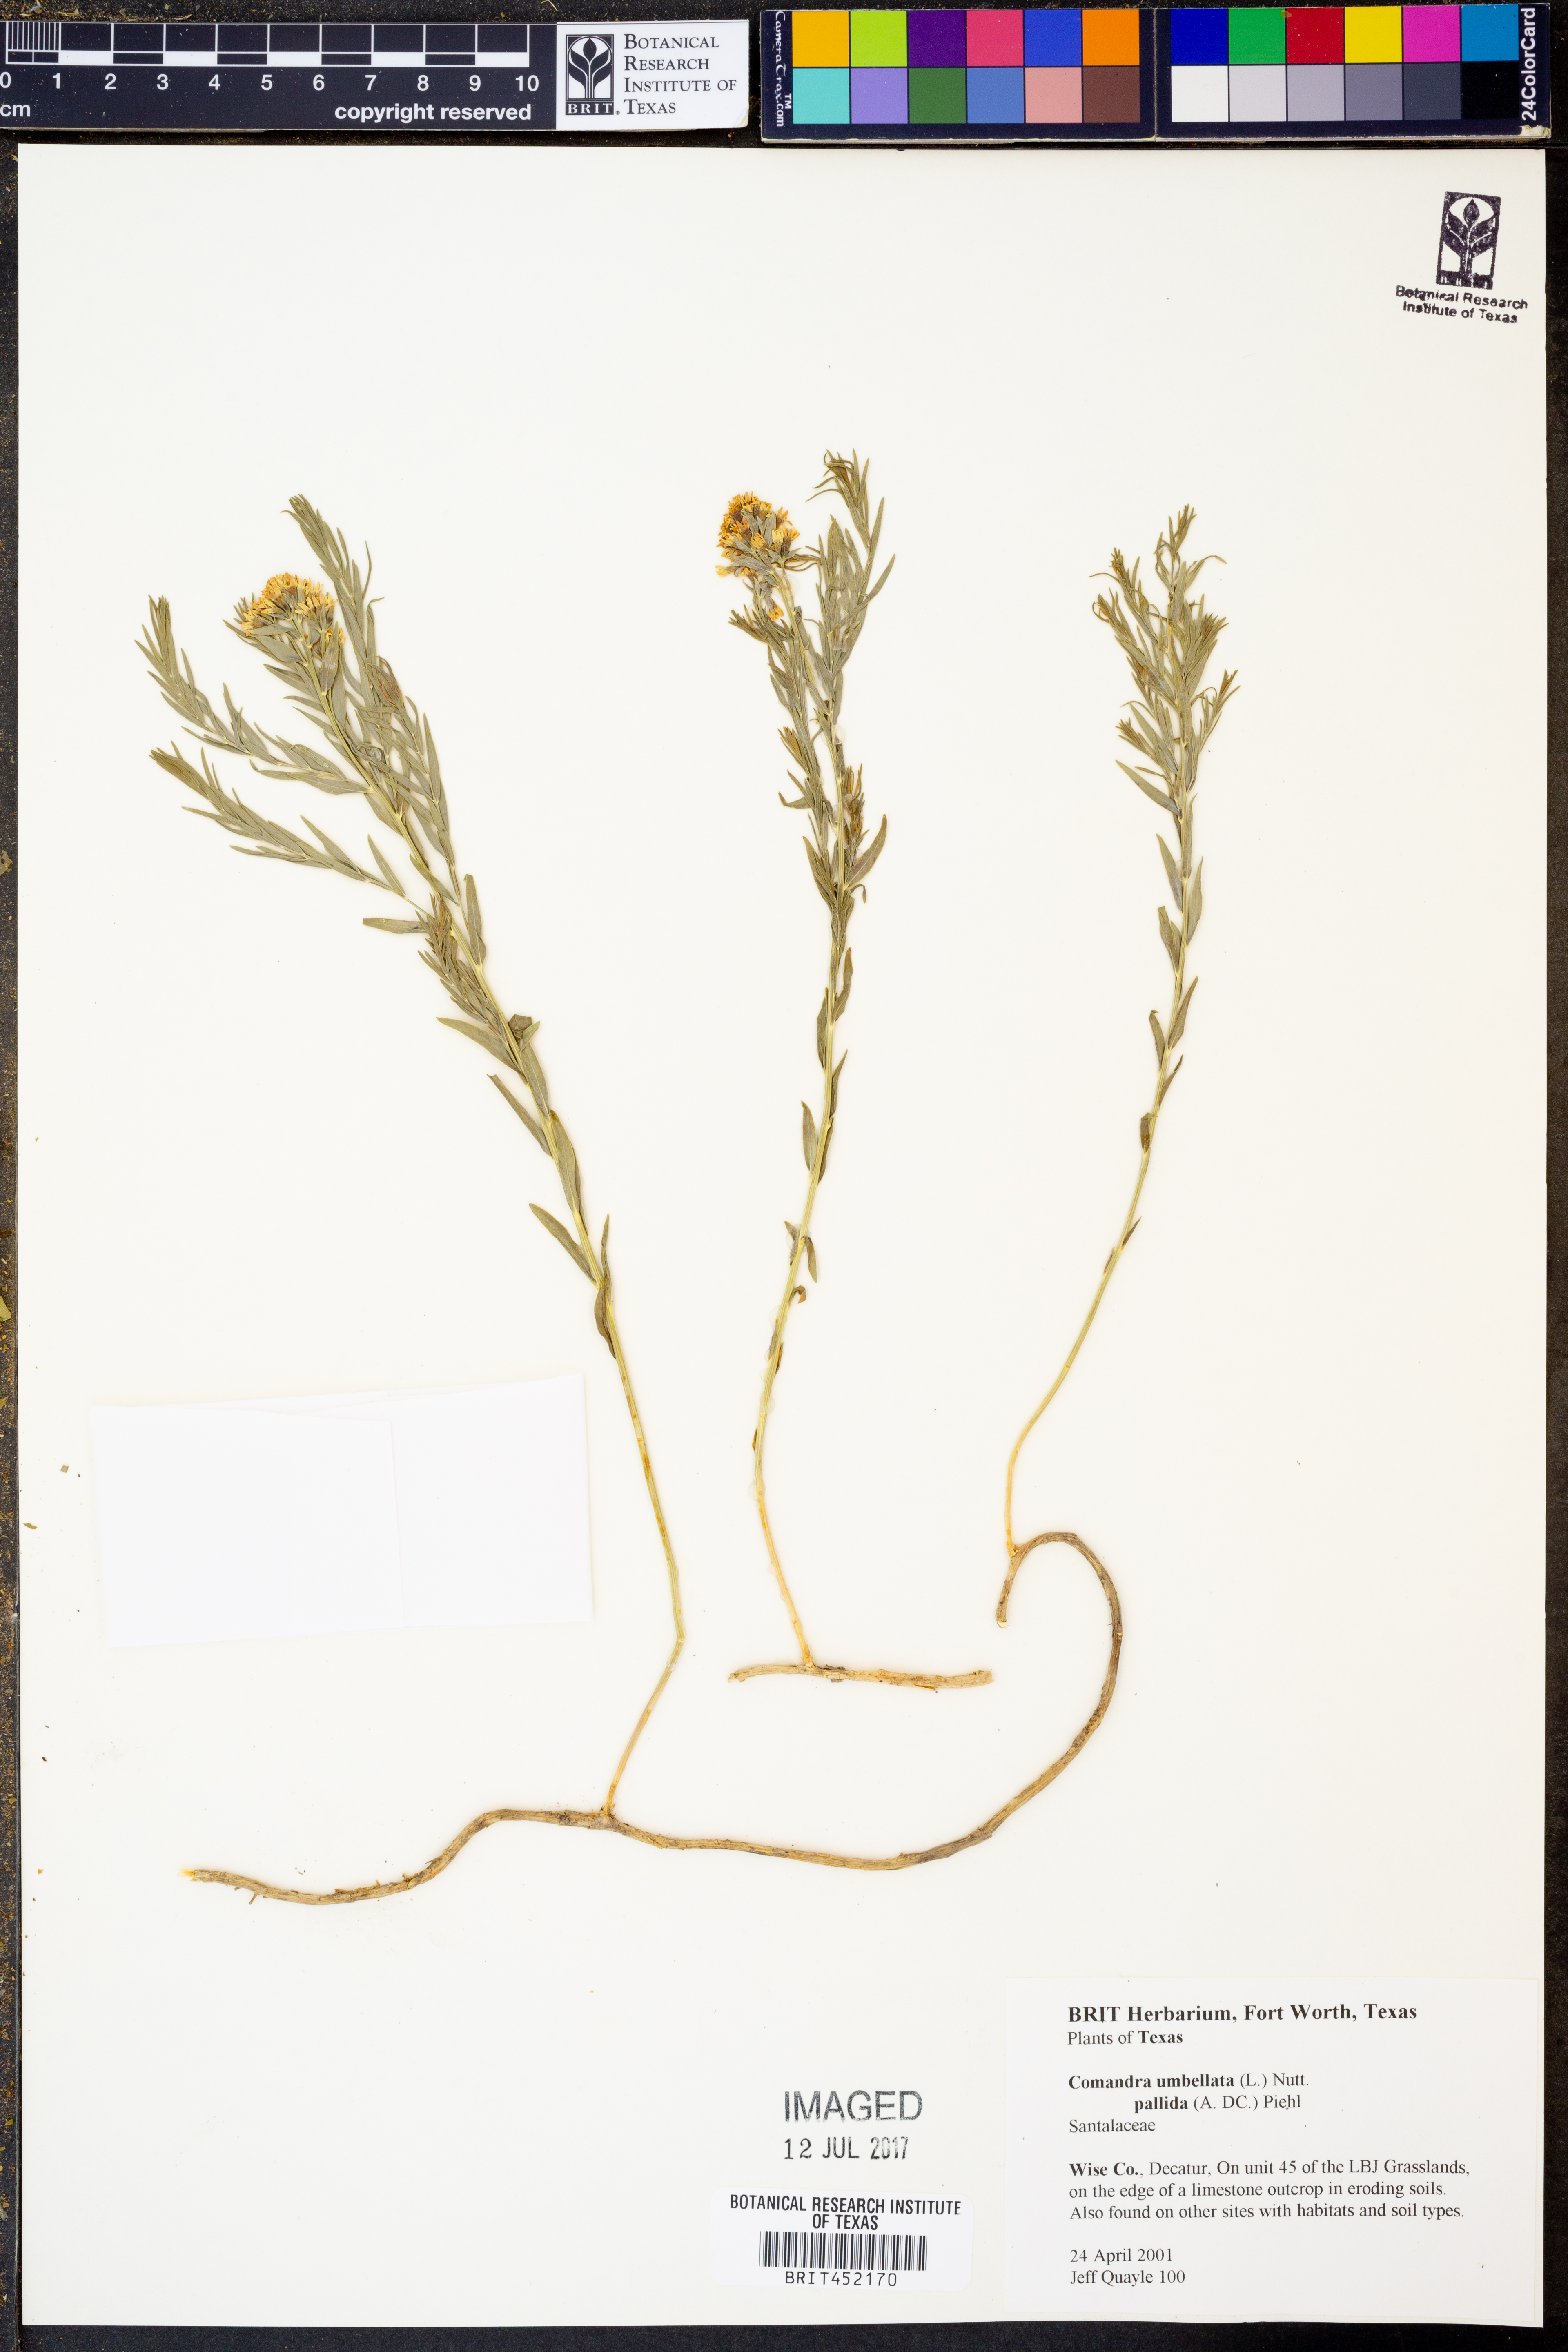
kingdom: Plantae
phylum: Tracheophyta
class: Magnoliopsida
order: Santalales
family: Comandraceae
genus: Comandra
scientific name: Comandra umbellata
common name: Bastard toadflax
